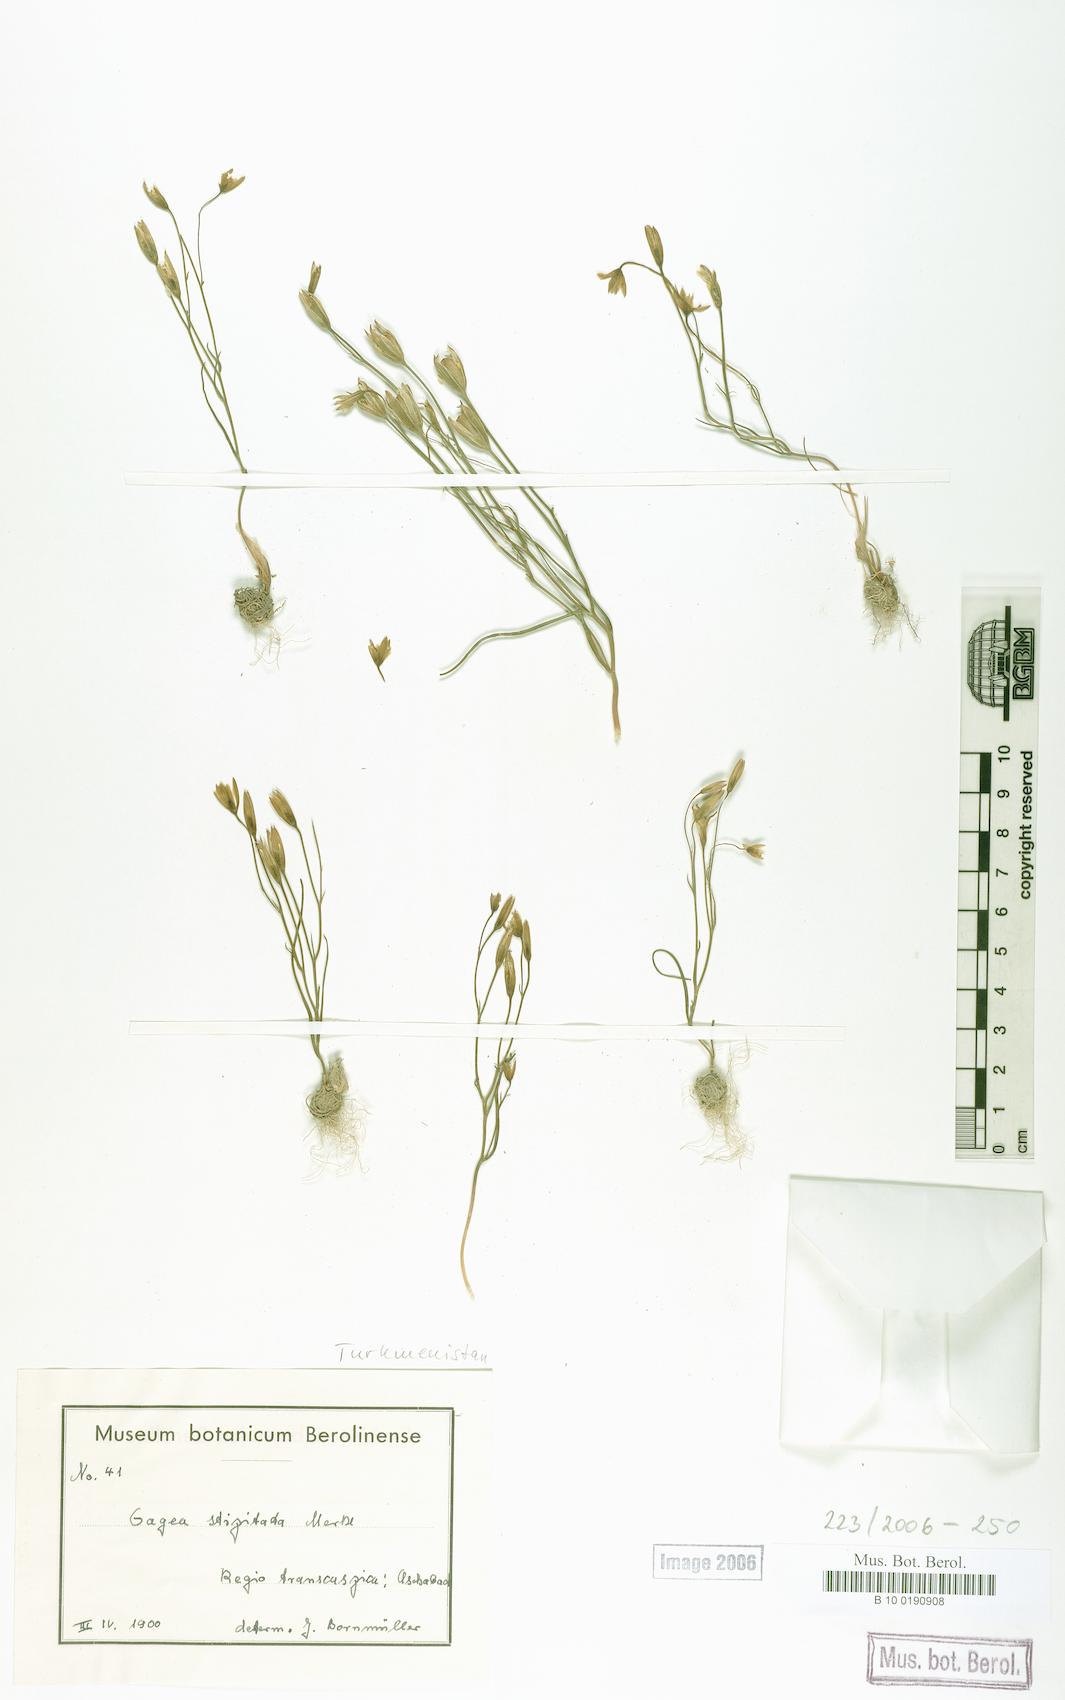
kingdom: Plantae
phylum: Tracheophyta
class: Liliopsida
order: Liliales
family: Liliaceae
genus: Gagea
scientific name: Gagea kunawurensis
